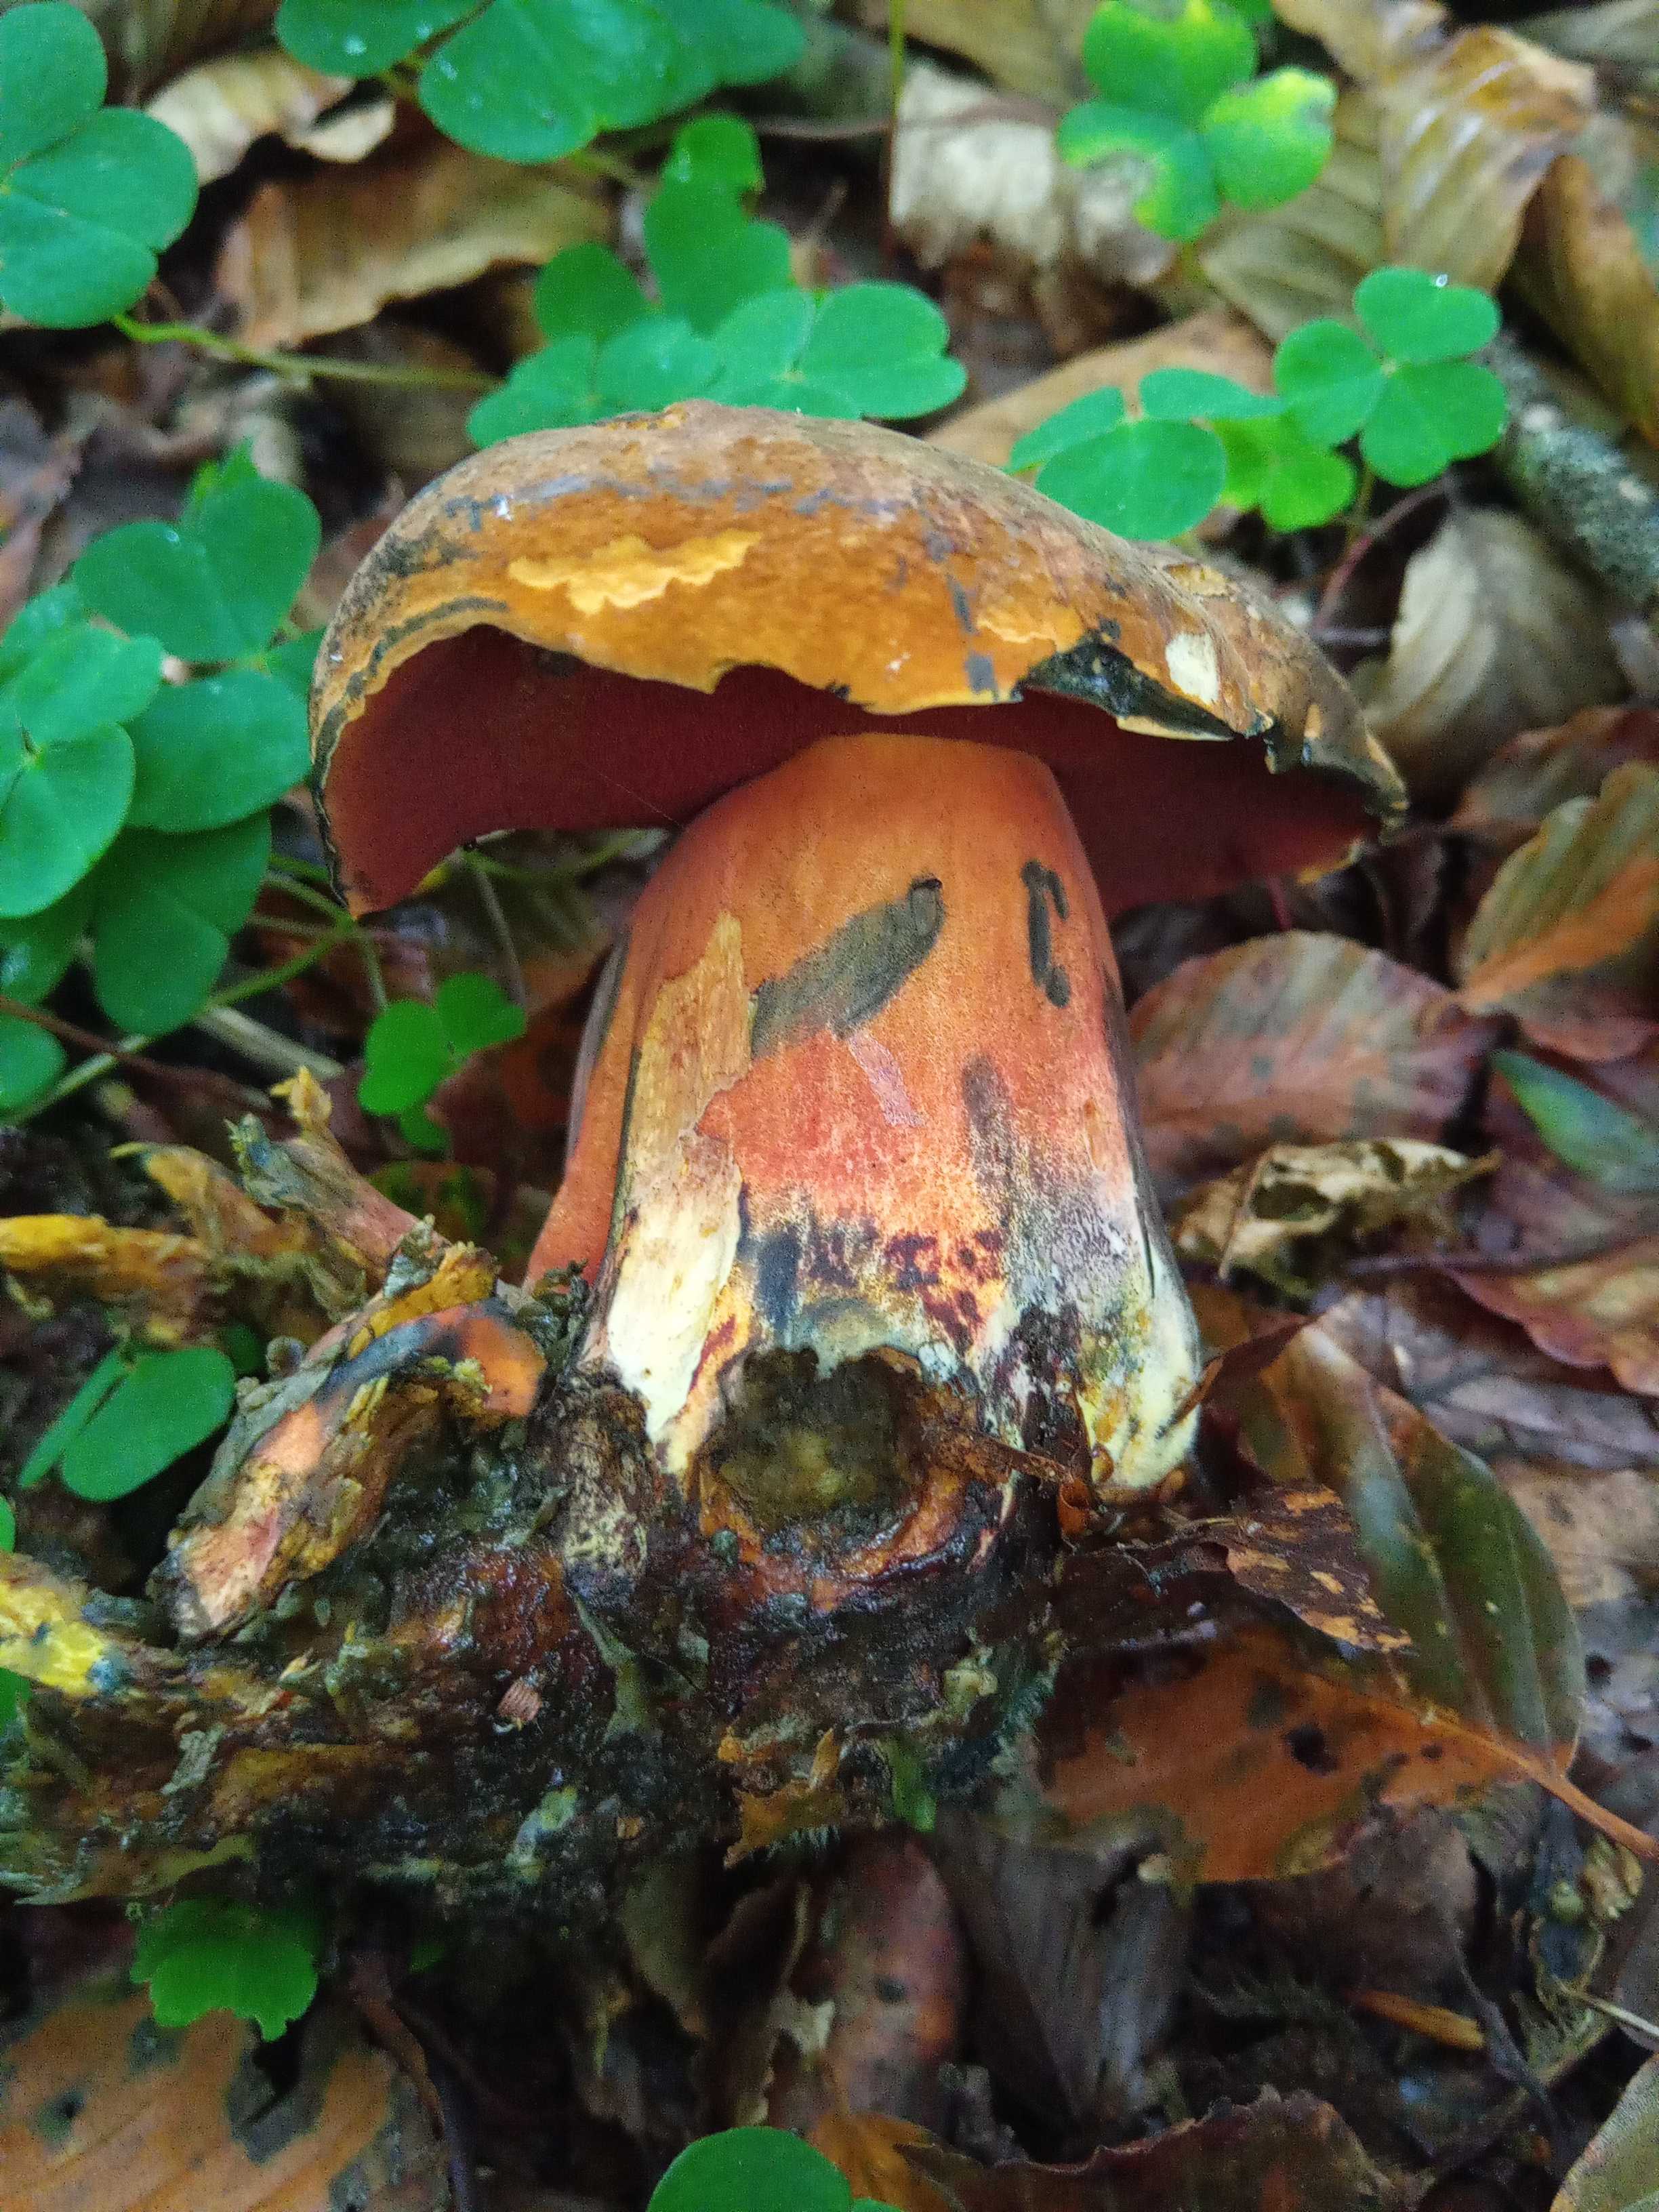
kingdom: Fungi
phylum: Basidiomycota
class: Agaricomycetes
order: Boletales
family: Boletaceae
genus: Neoboletus
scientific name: Neoboletus erythropus
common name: punktstokket indigorørhat
